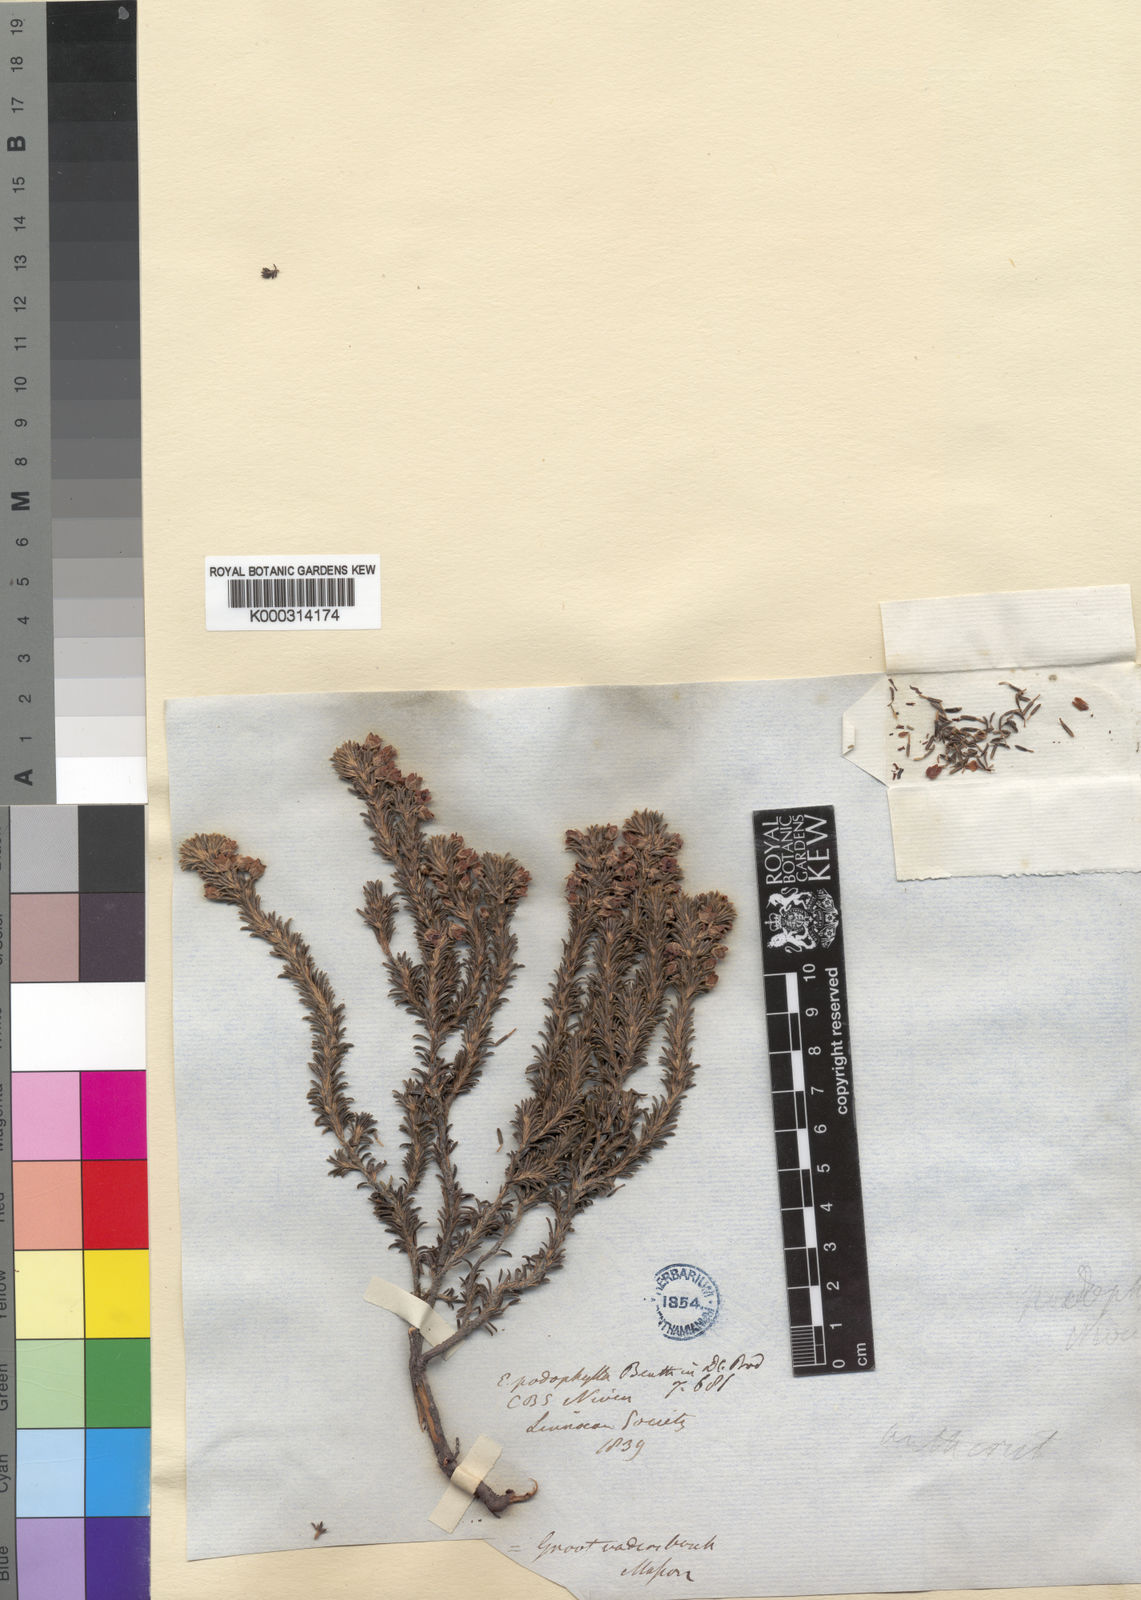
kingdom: Plantae
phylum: Tracheophyta
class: Magnoliopsida
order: Ericales
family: Ericaceae
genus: Erica
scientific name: Erica podophylla
